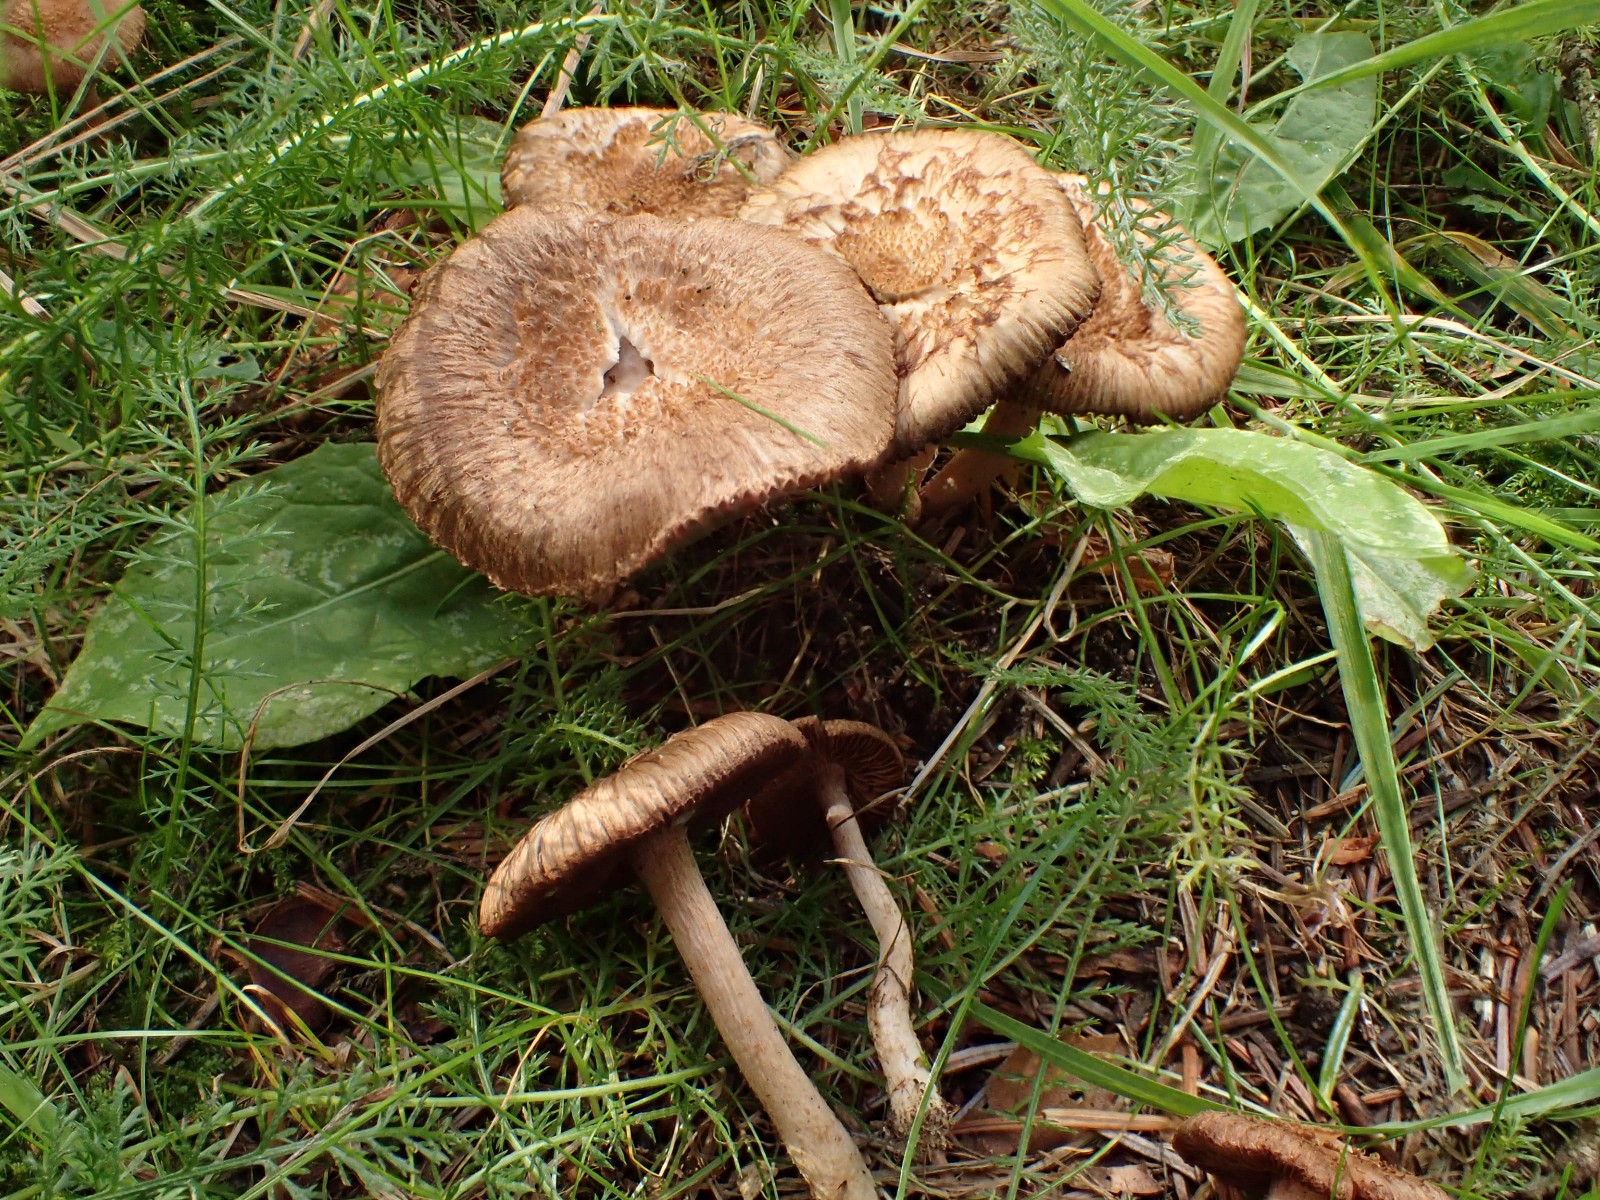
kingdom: Fungi
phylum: Basidiomycota
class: Agaricomycetes
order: Agaricales
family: Inocybaceae
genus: Inocybe
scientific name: Inocybe cincinnata
